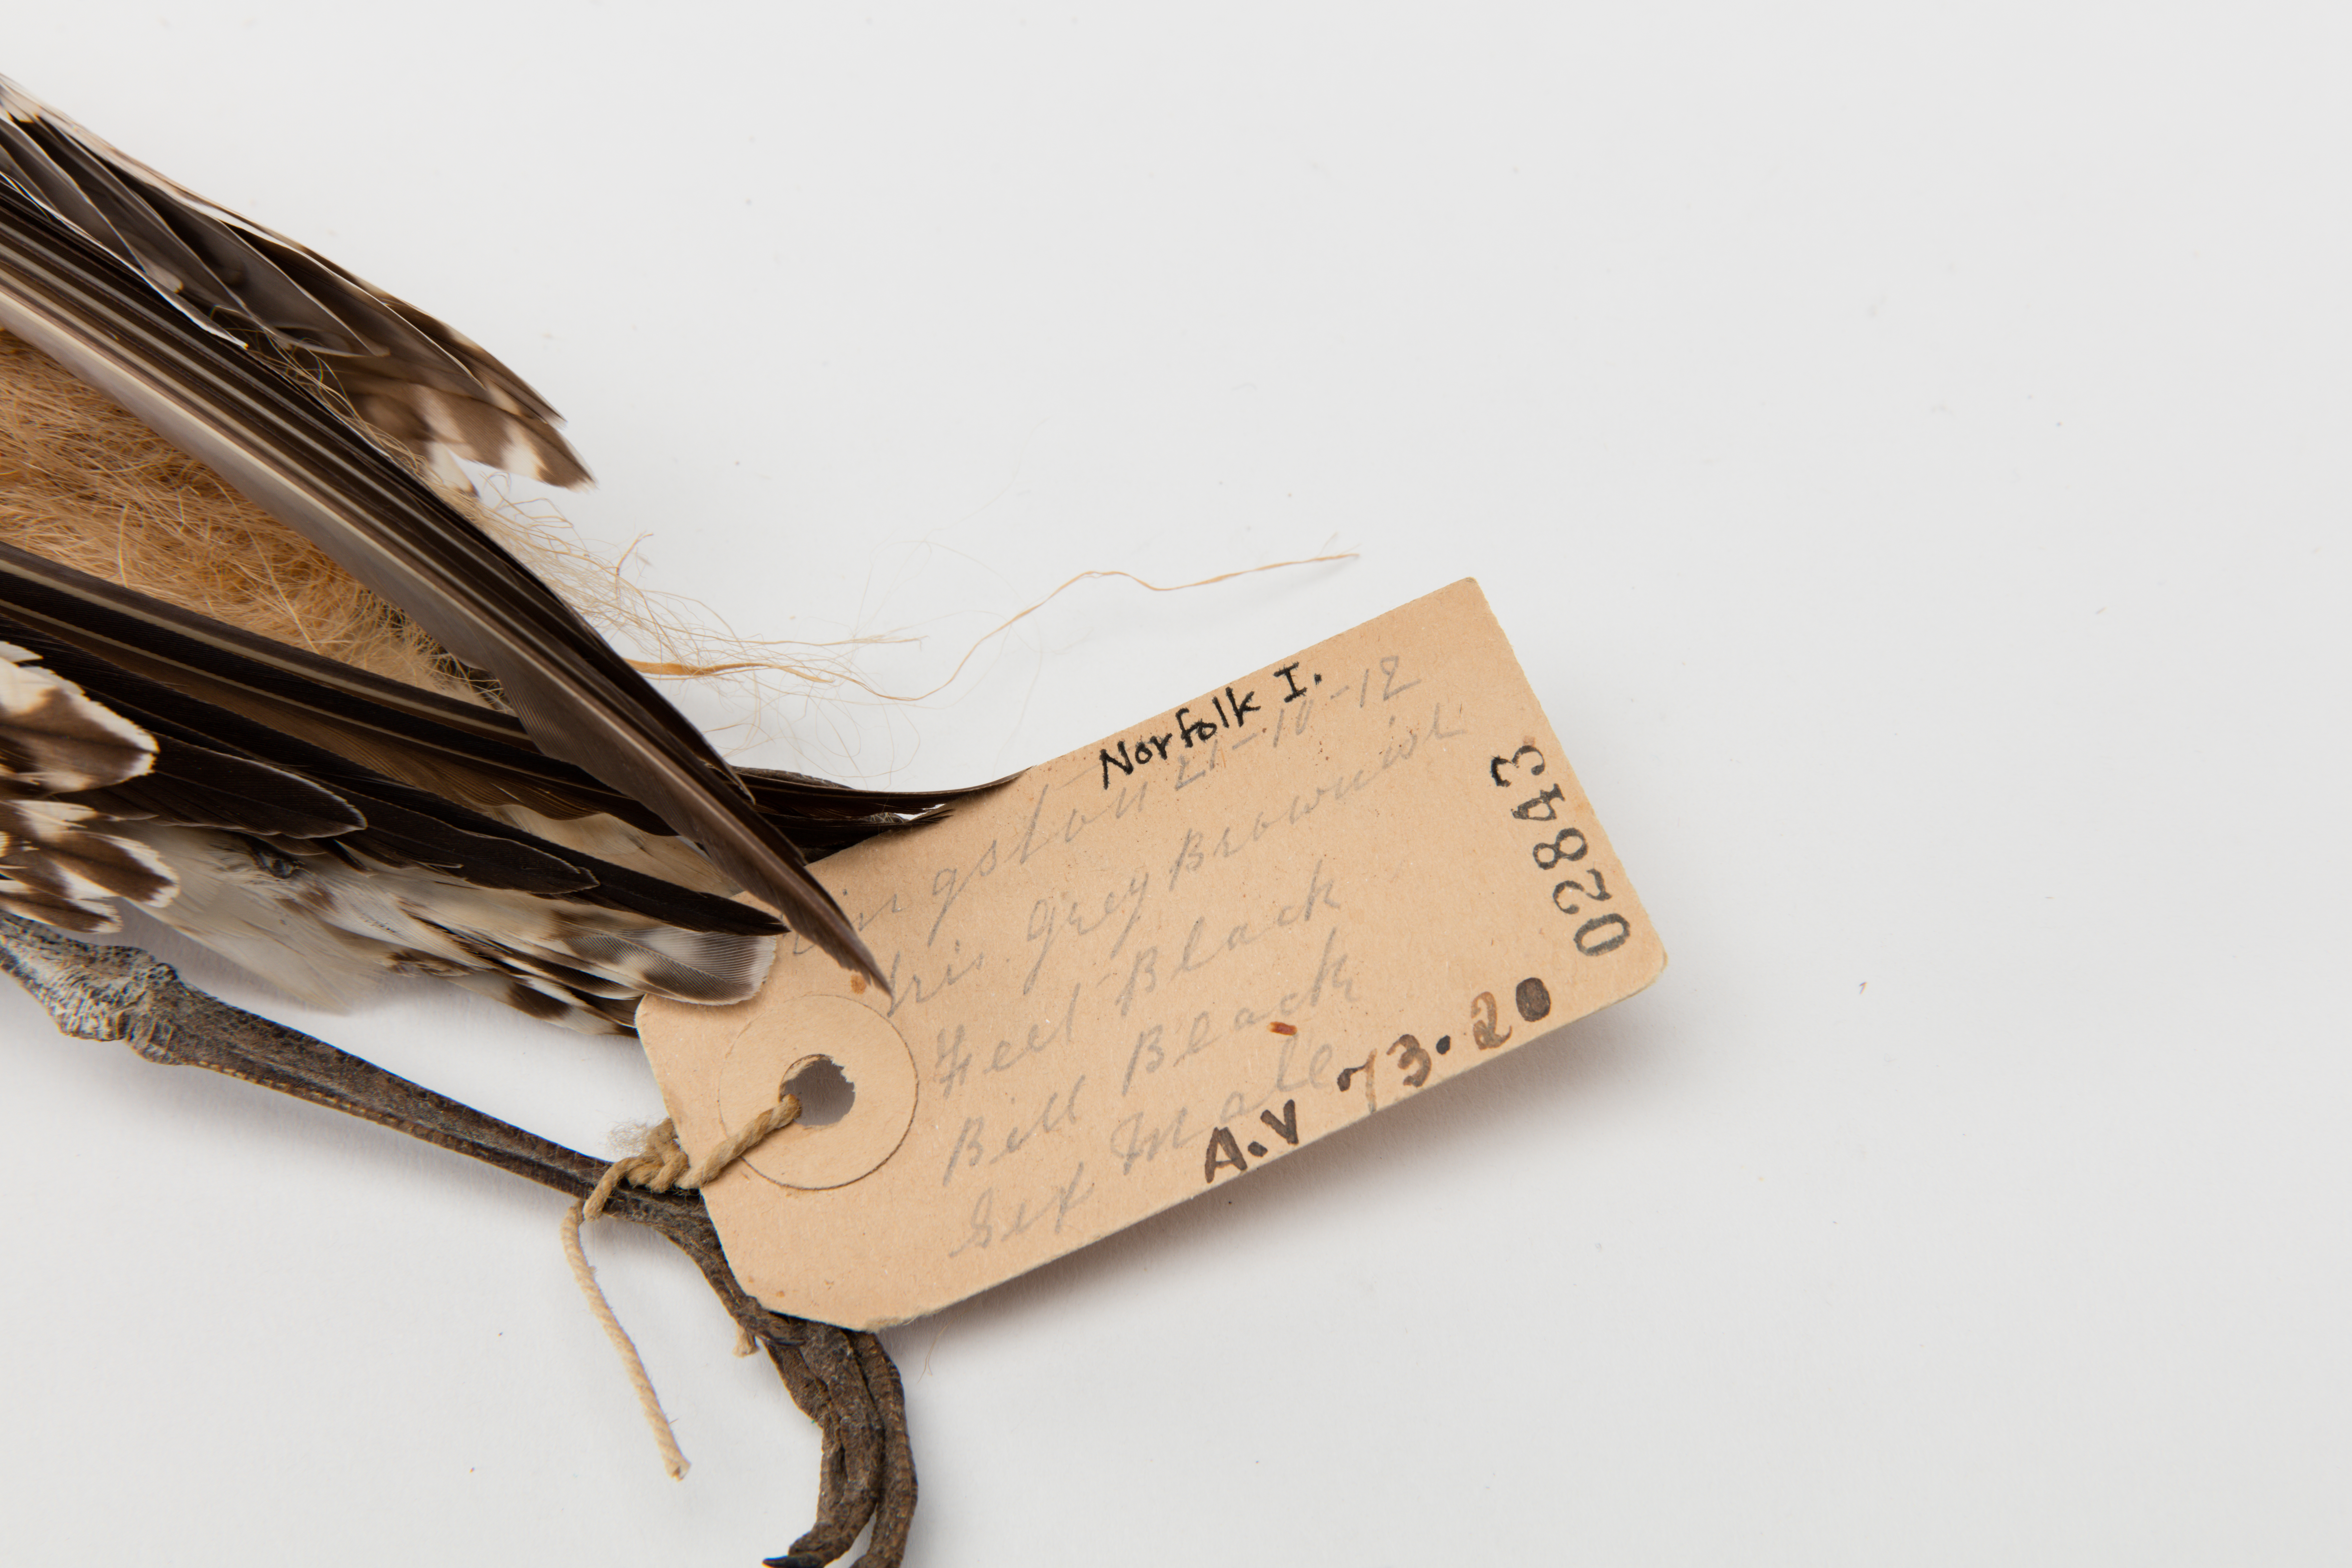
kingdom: Animalia
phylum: Chordata
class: Aves
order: Charadriiformes
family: Scolopacidae
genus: Limosa
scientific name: Limosa lapponica
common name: Bar-tailed godwit
